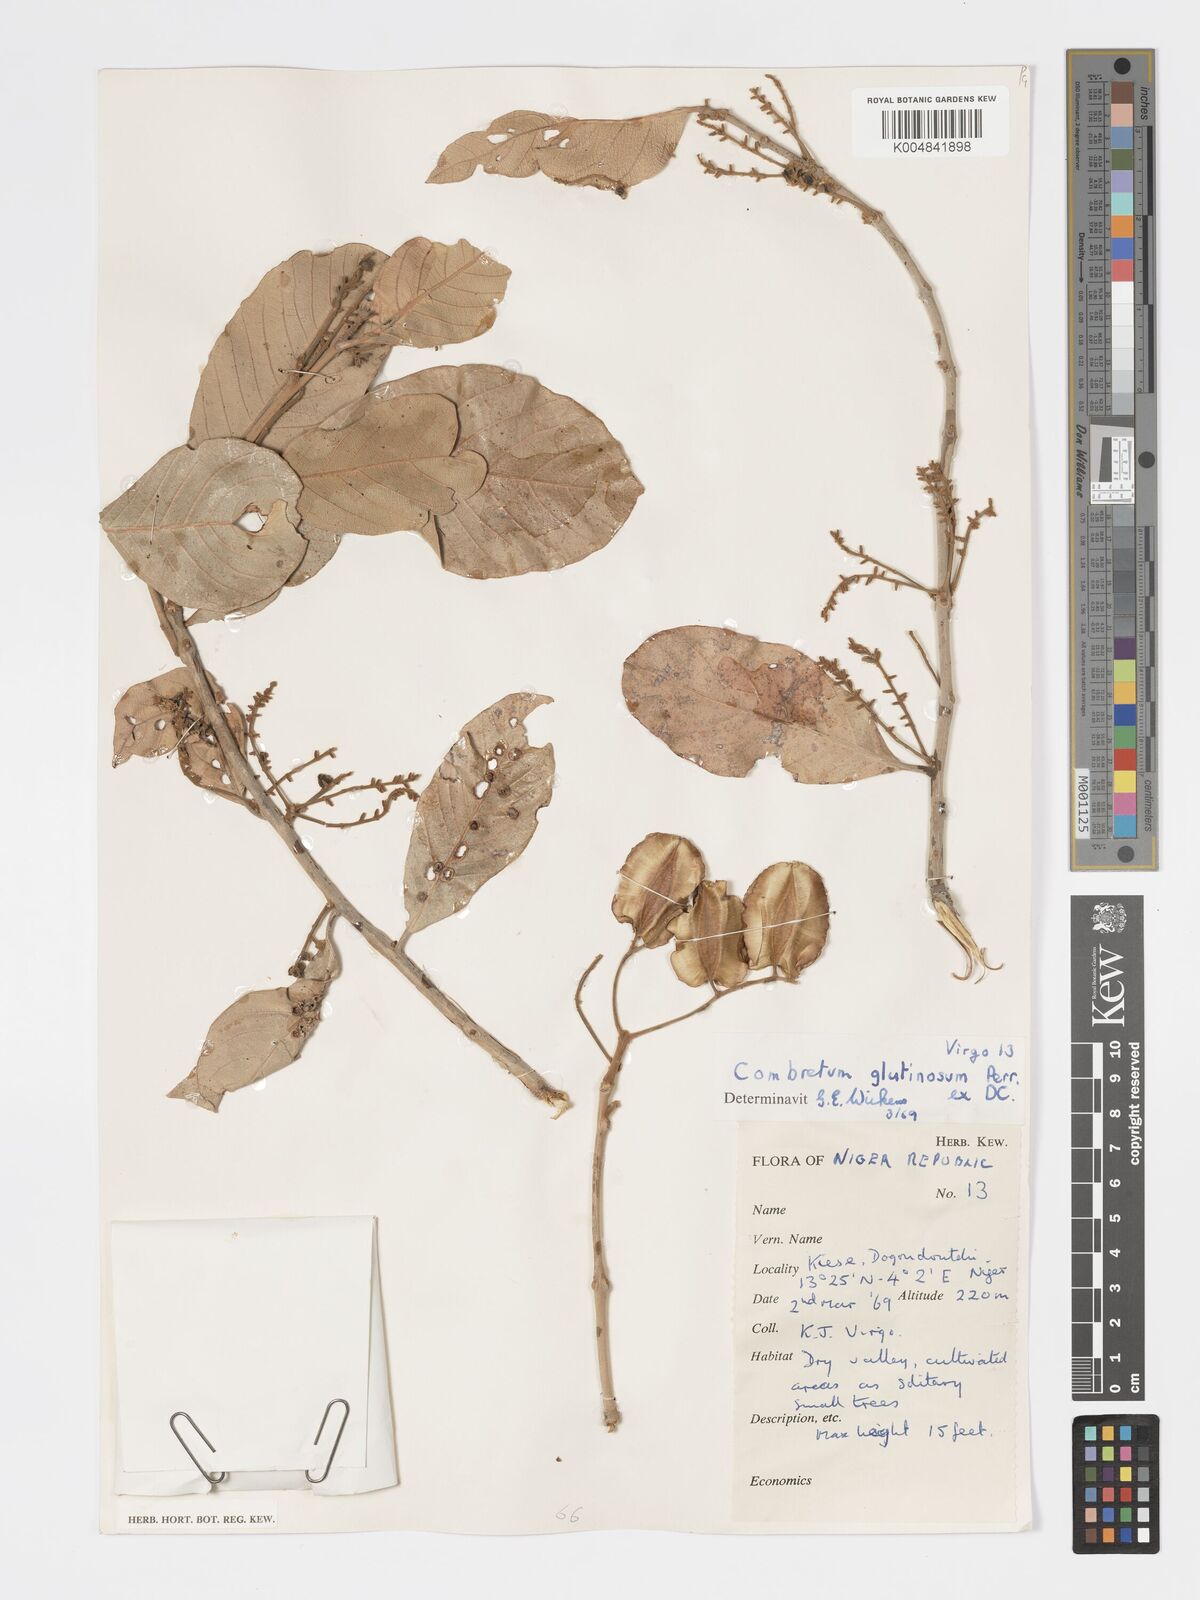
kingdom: Plantae
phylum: Tracheophyta
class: Magnoliopsida
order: Myrtales
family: Combretaceae
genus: Combretum
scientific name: Combretum
